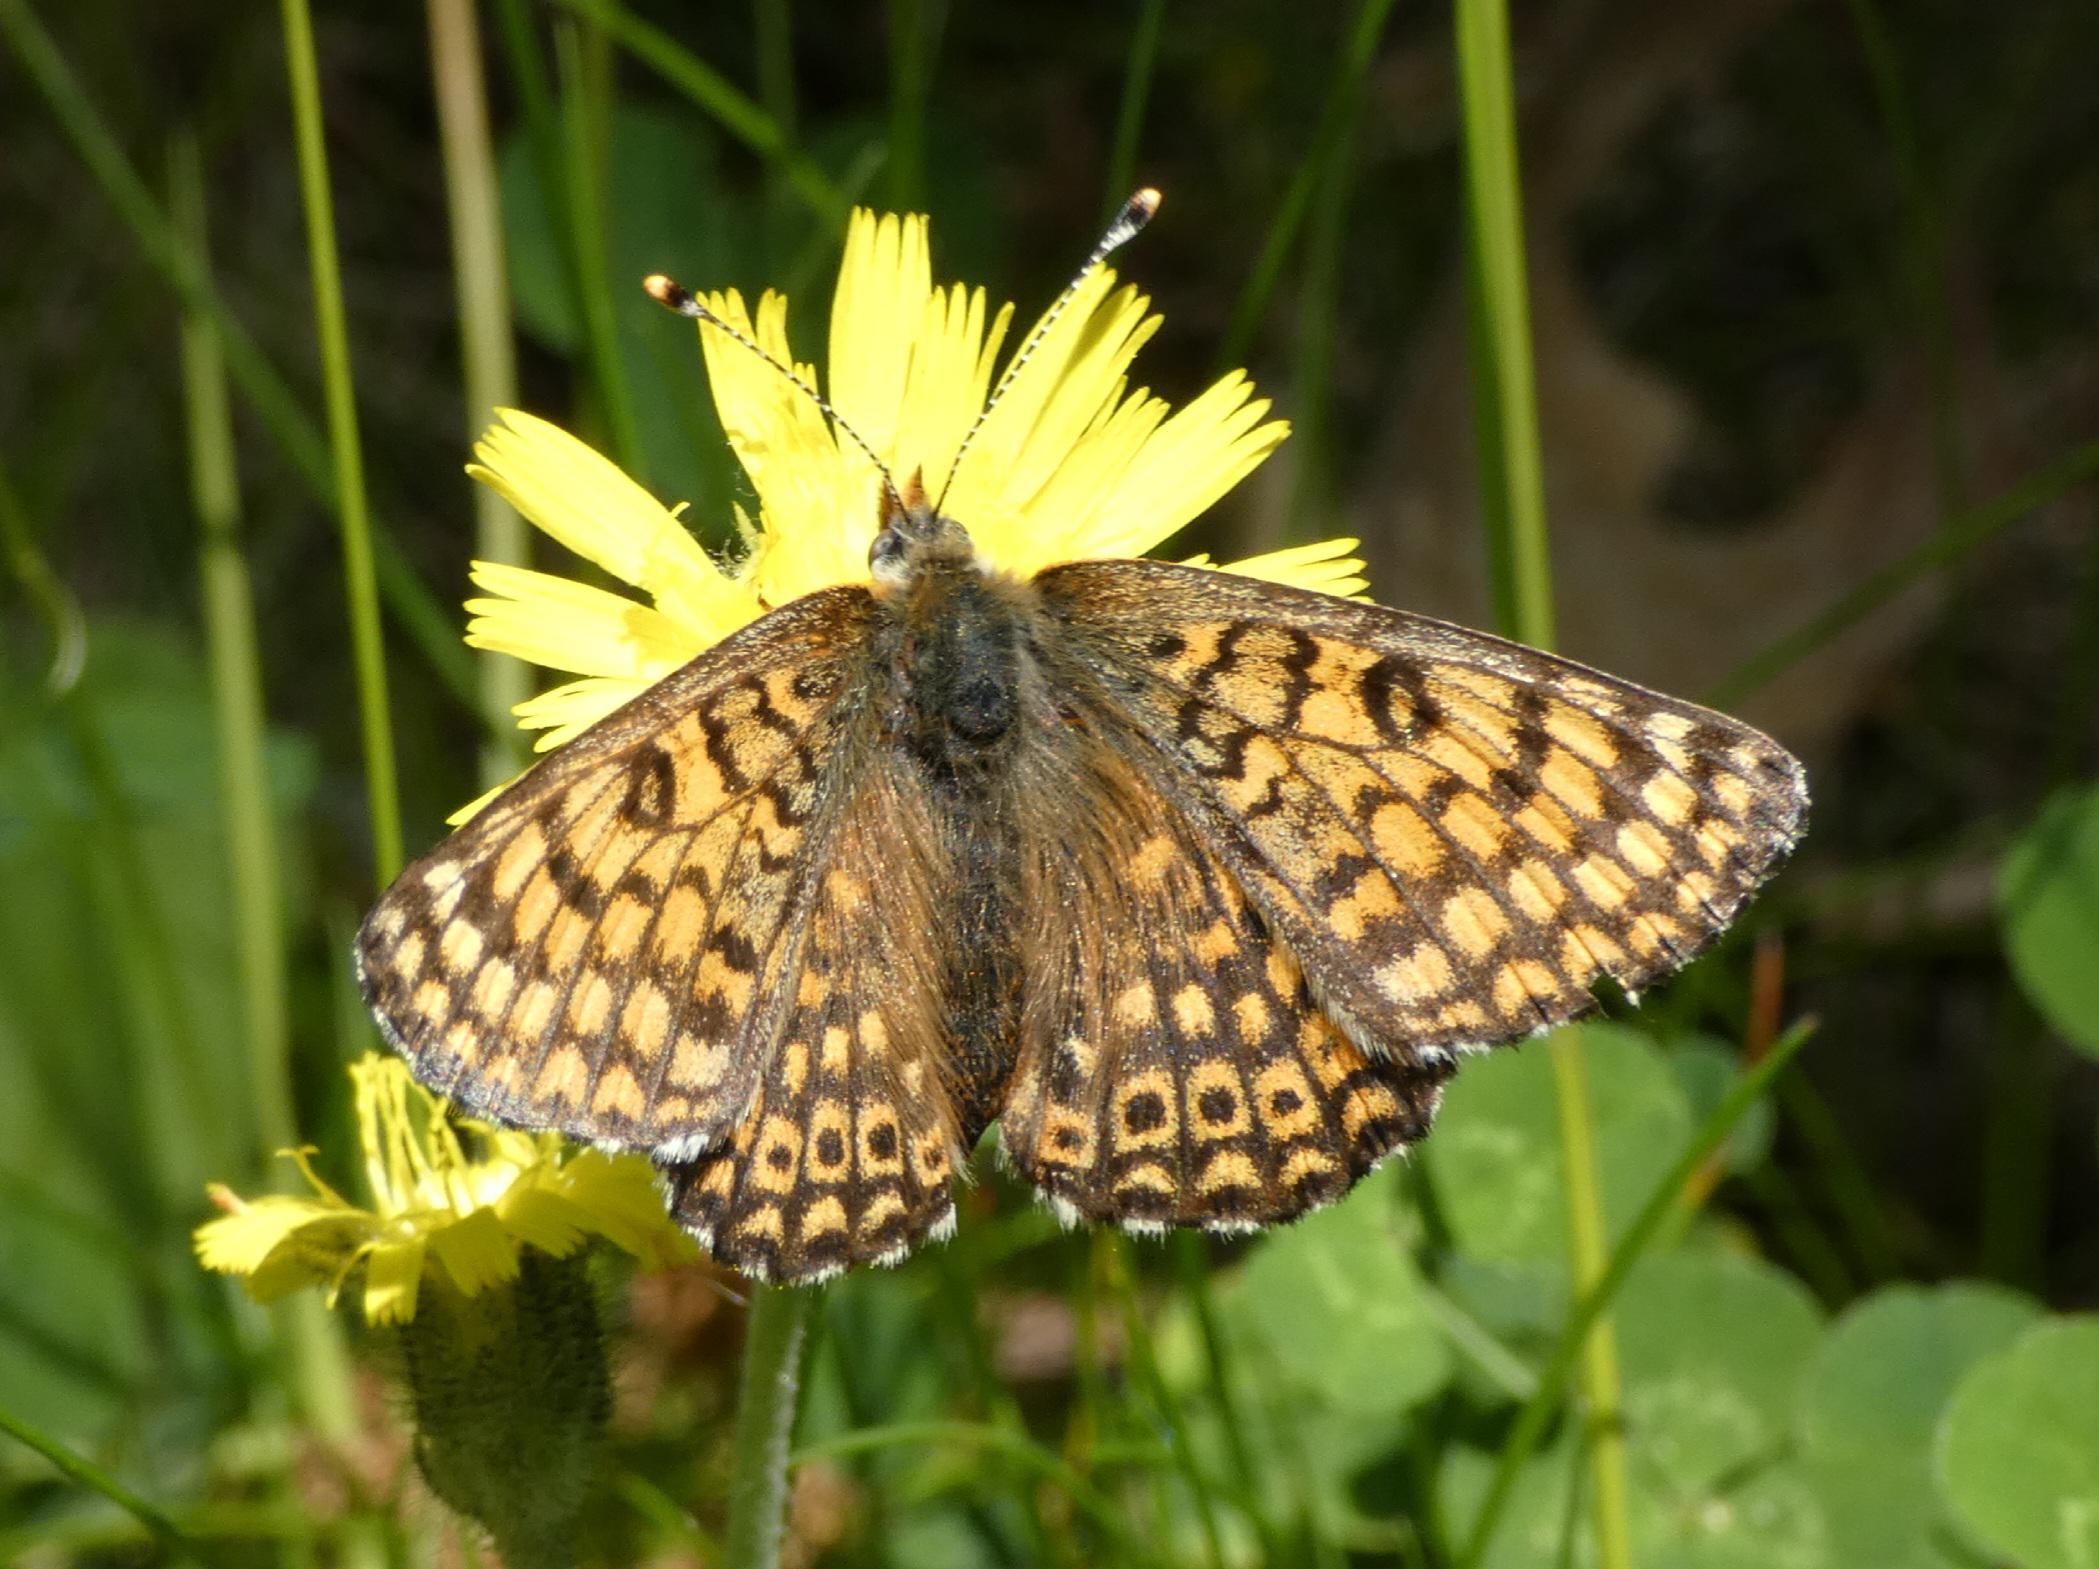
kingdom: Animalia
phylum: Arthropoda
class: Insecta
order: Lepidoptera
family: Nymphalidae
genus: Melitaea
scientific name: Melitaea cinxia
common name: Okkergul pletvinge
